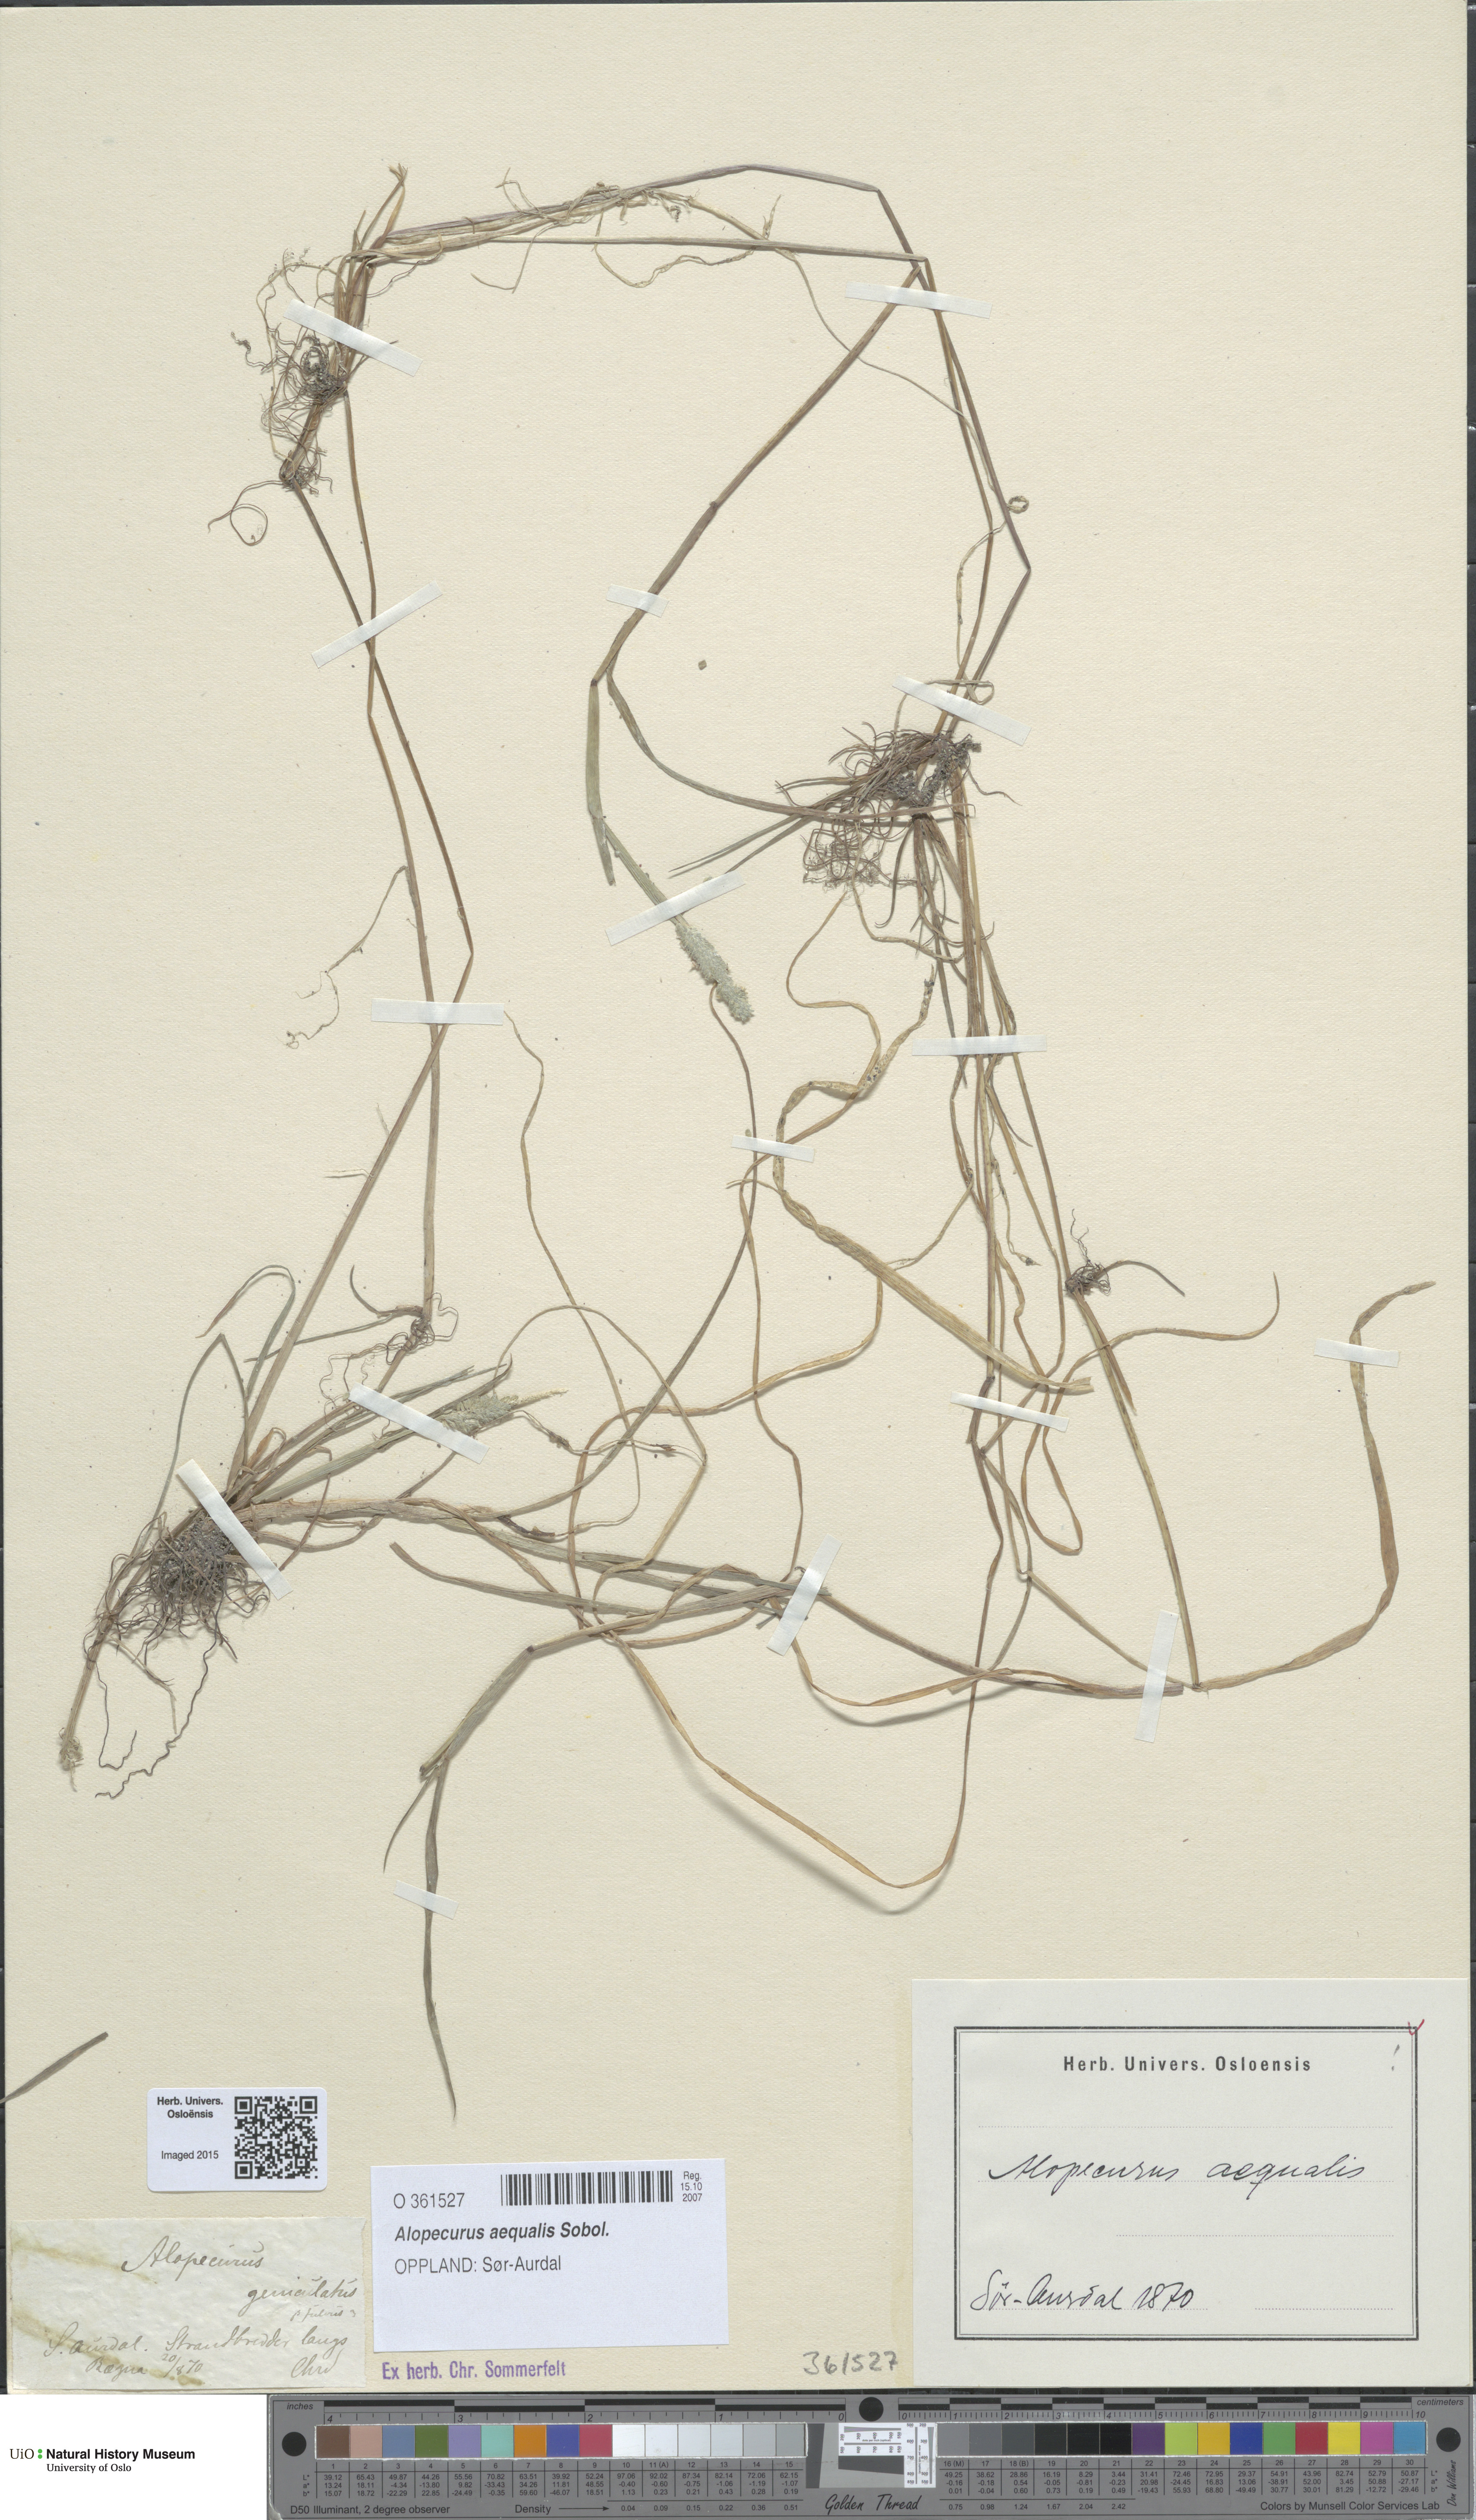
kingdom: Plantae
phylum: Tracheophyta
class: Liliopsida
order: Poales
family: Poaceae
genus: Alopecurus
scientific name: Alopecurus aequalis
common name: Orange foxtail
